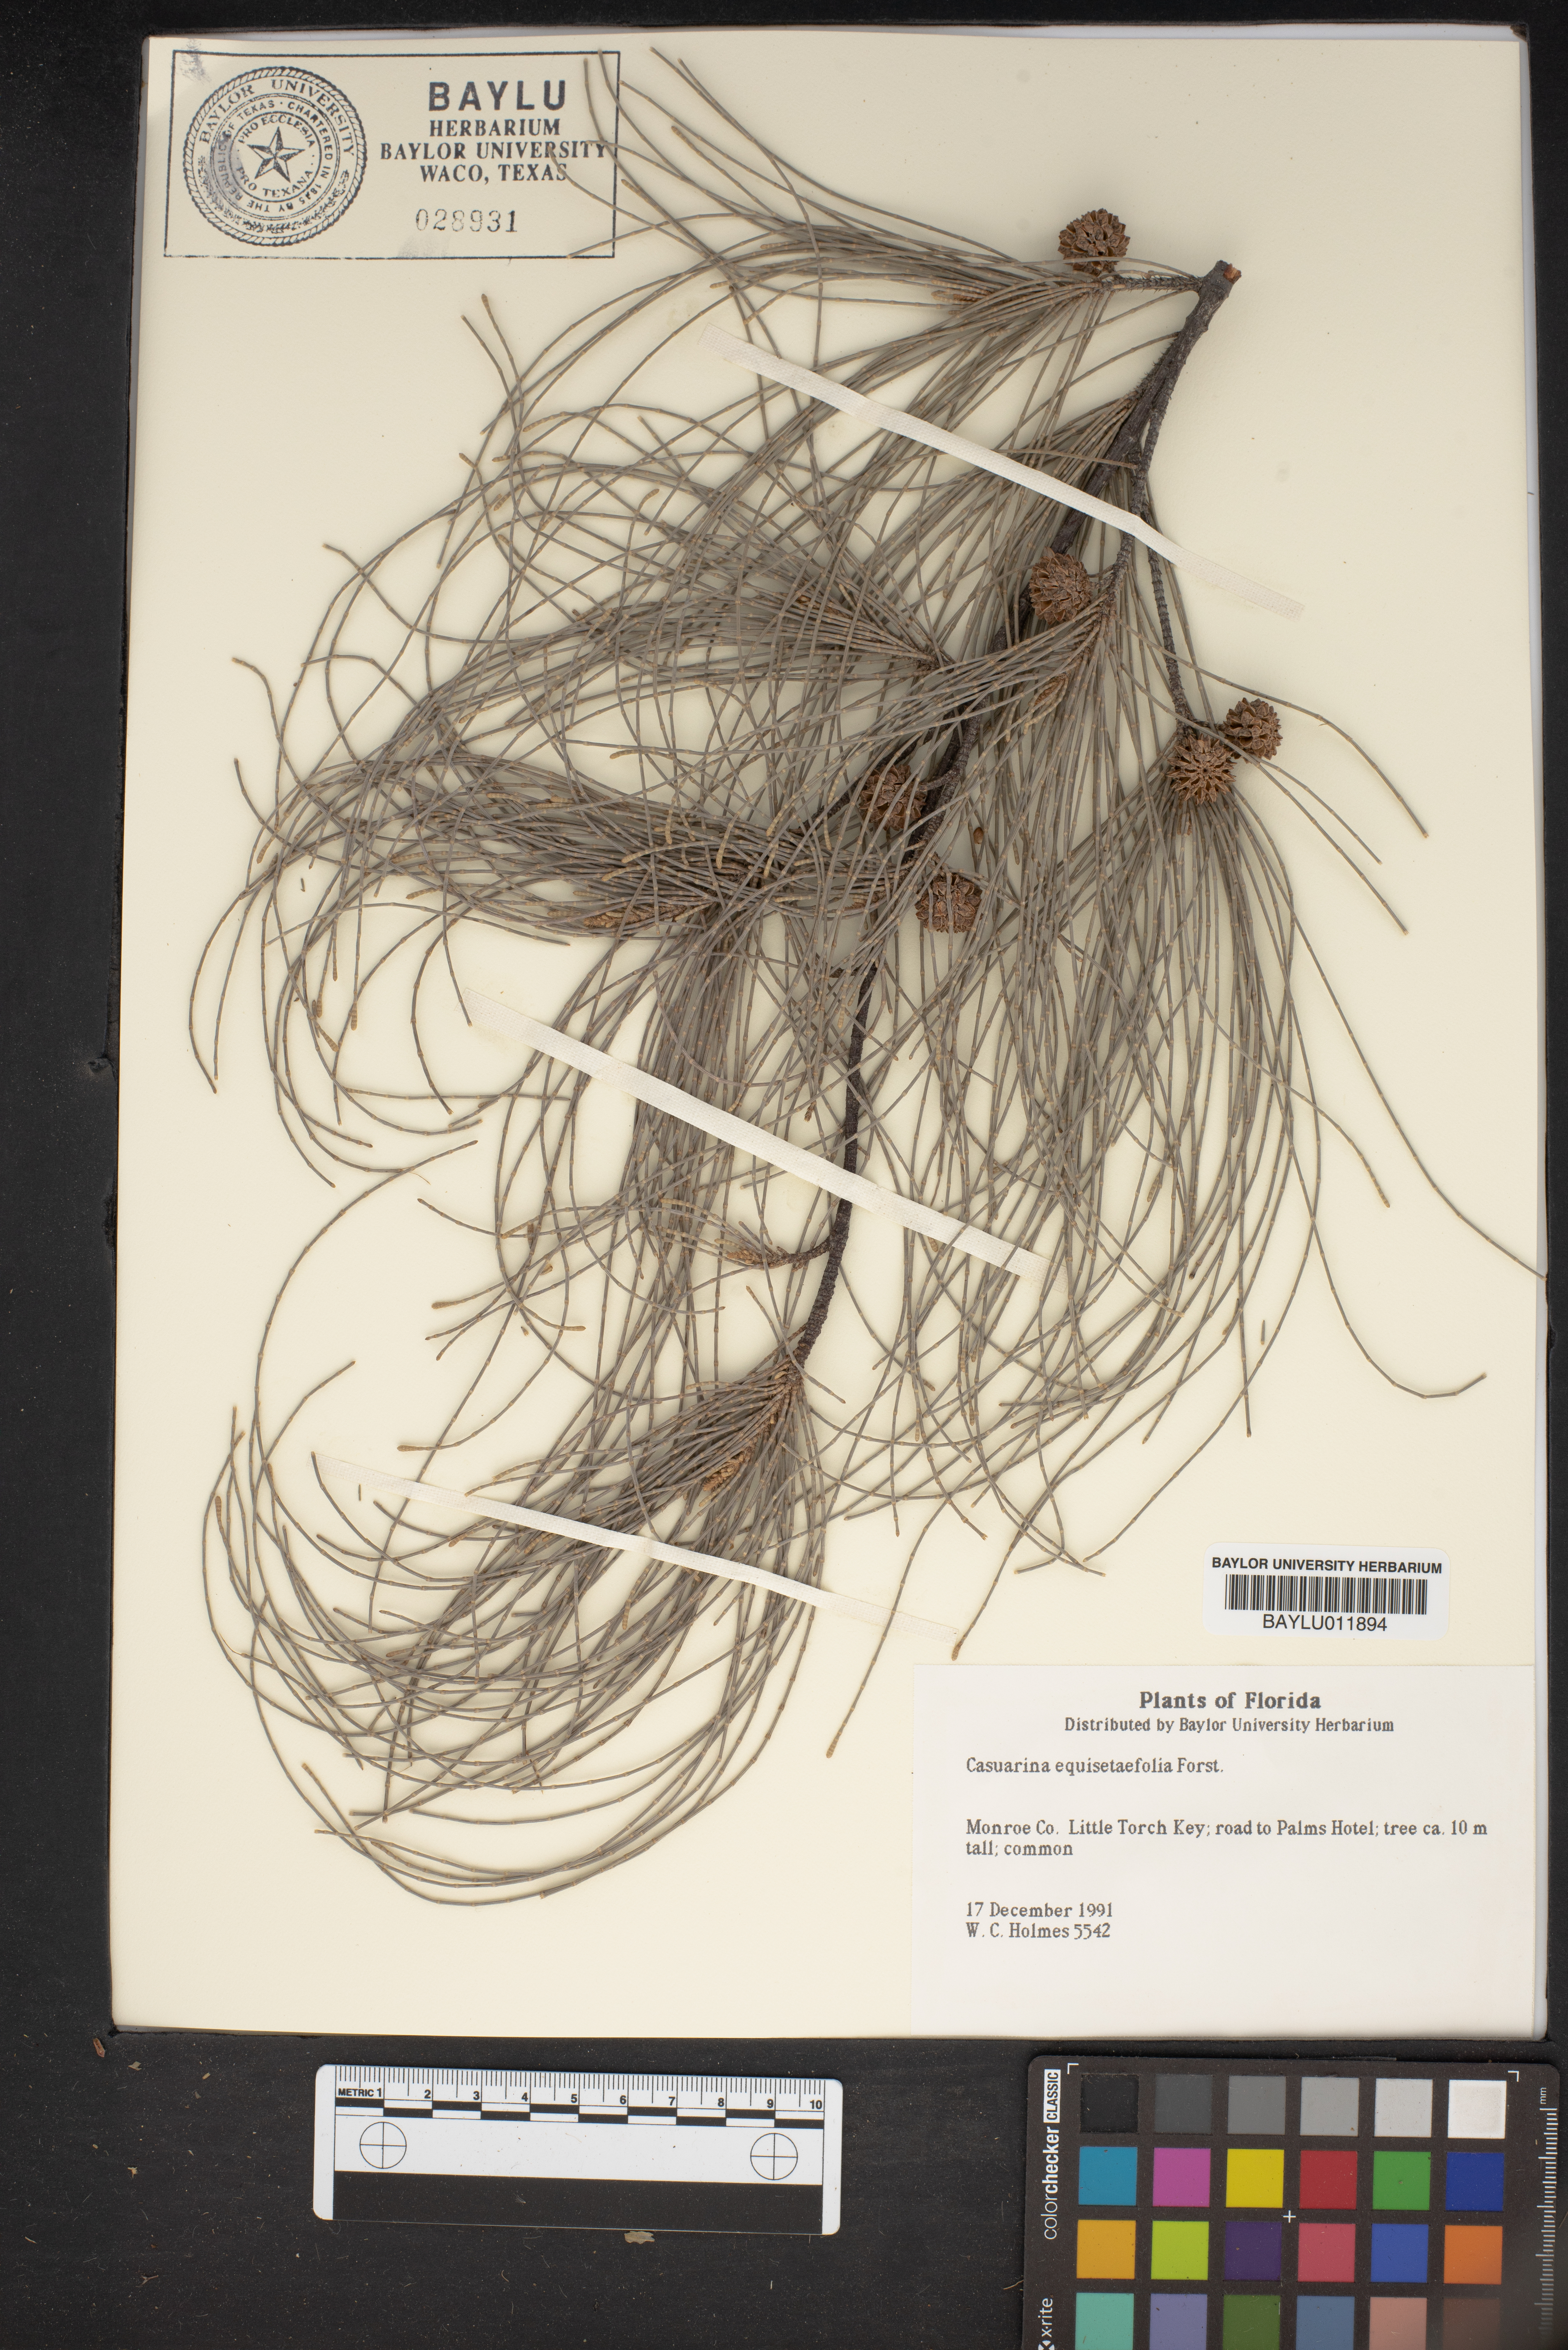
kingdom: Plantae
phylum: Tracheophyta
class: Magnoliopsida
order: Fagales
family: Casuarinaceae
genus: Casuarina
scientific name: Casuarina equisetifolia
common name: Beach sheoak
